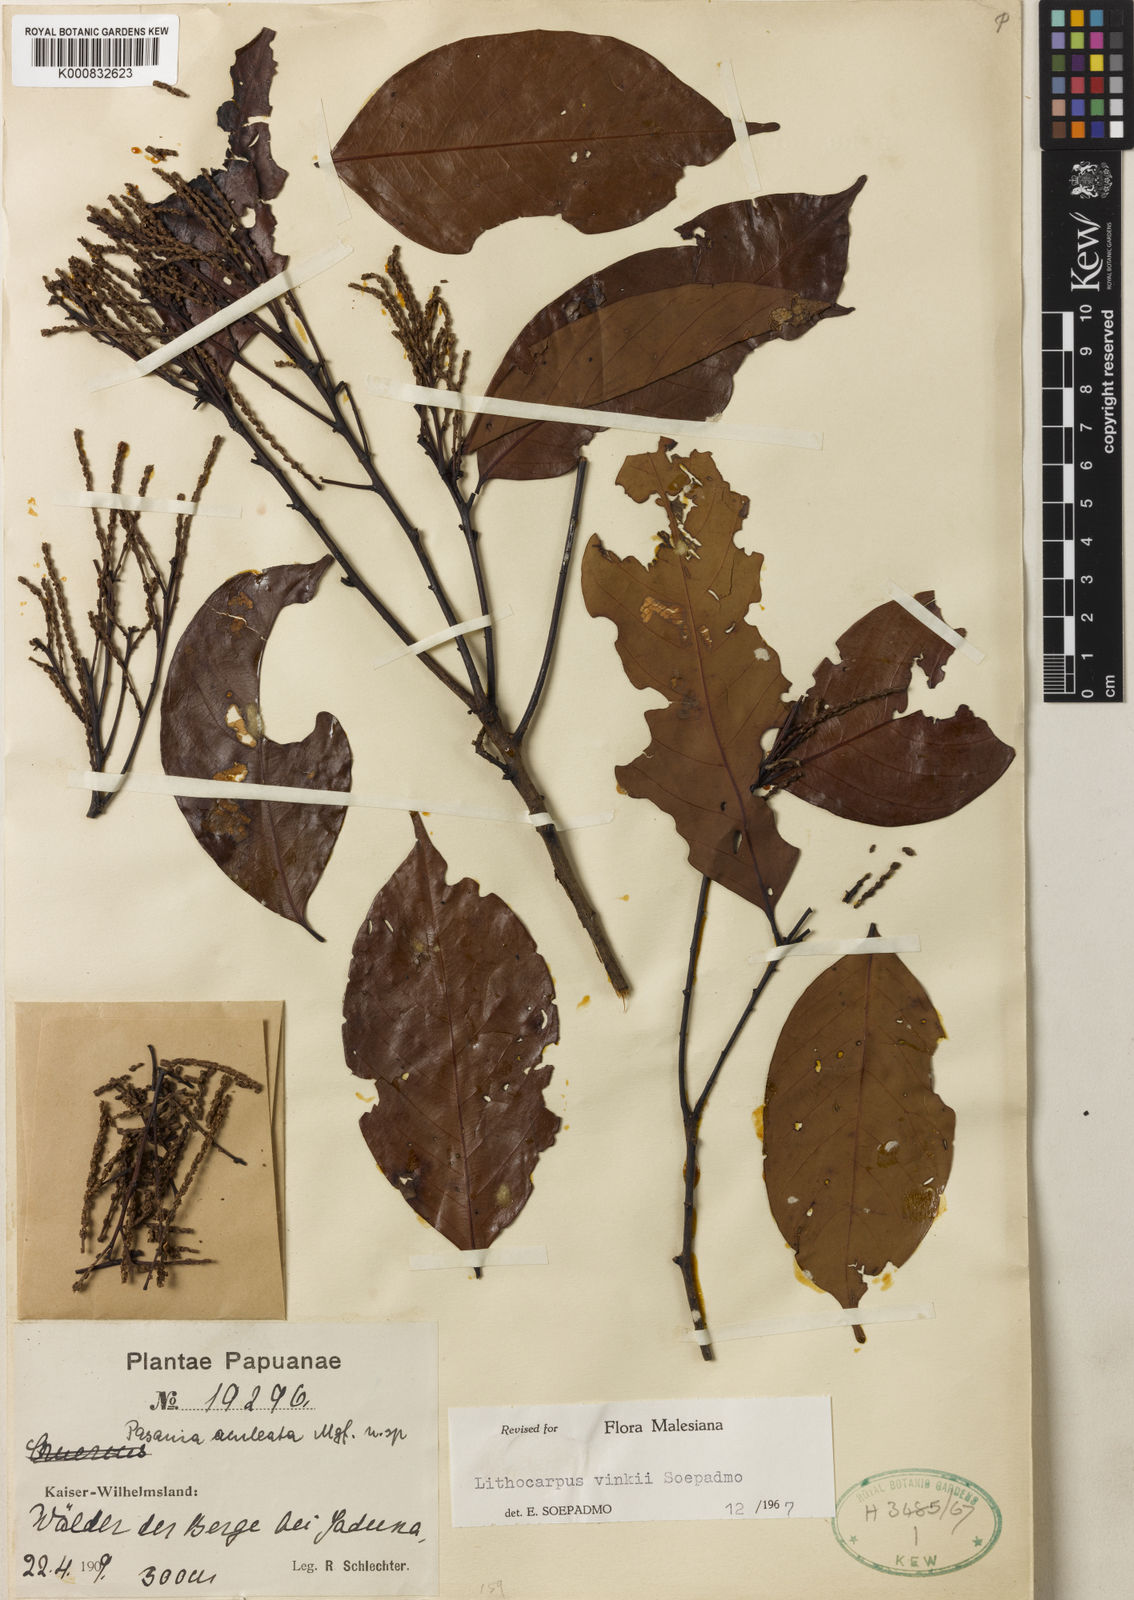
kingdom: Plantae
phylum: Tracheophyta
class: Magnoliopsida
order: Fagales
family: Fagaceae
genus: Lithocarpus
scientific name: Lithocarpus vinkii
